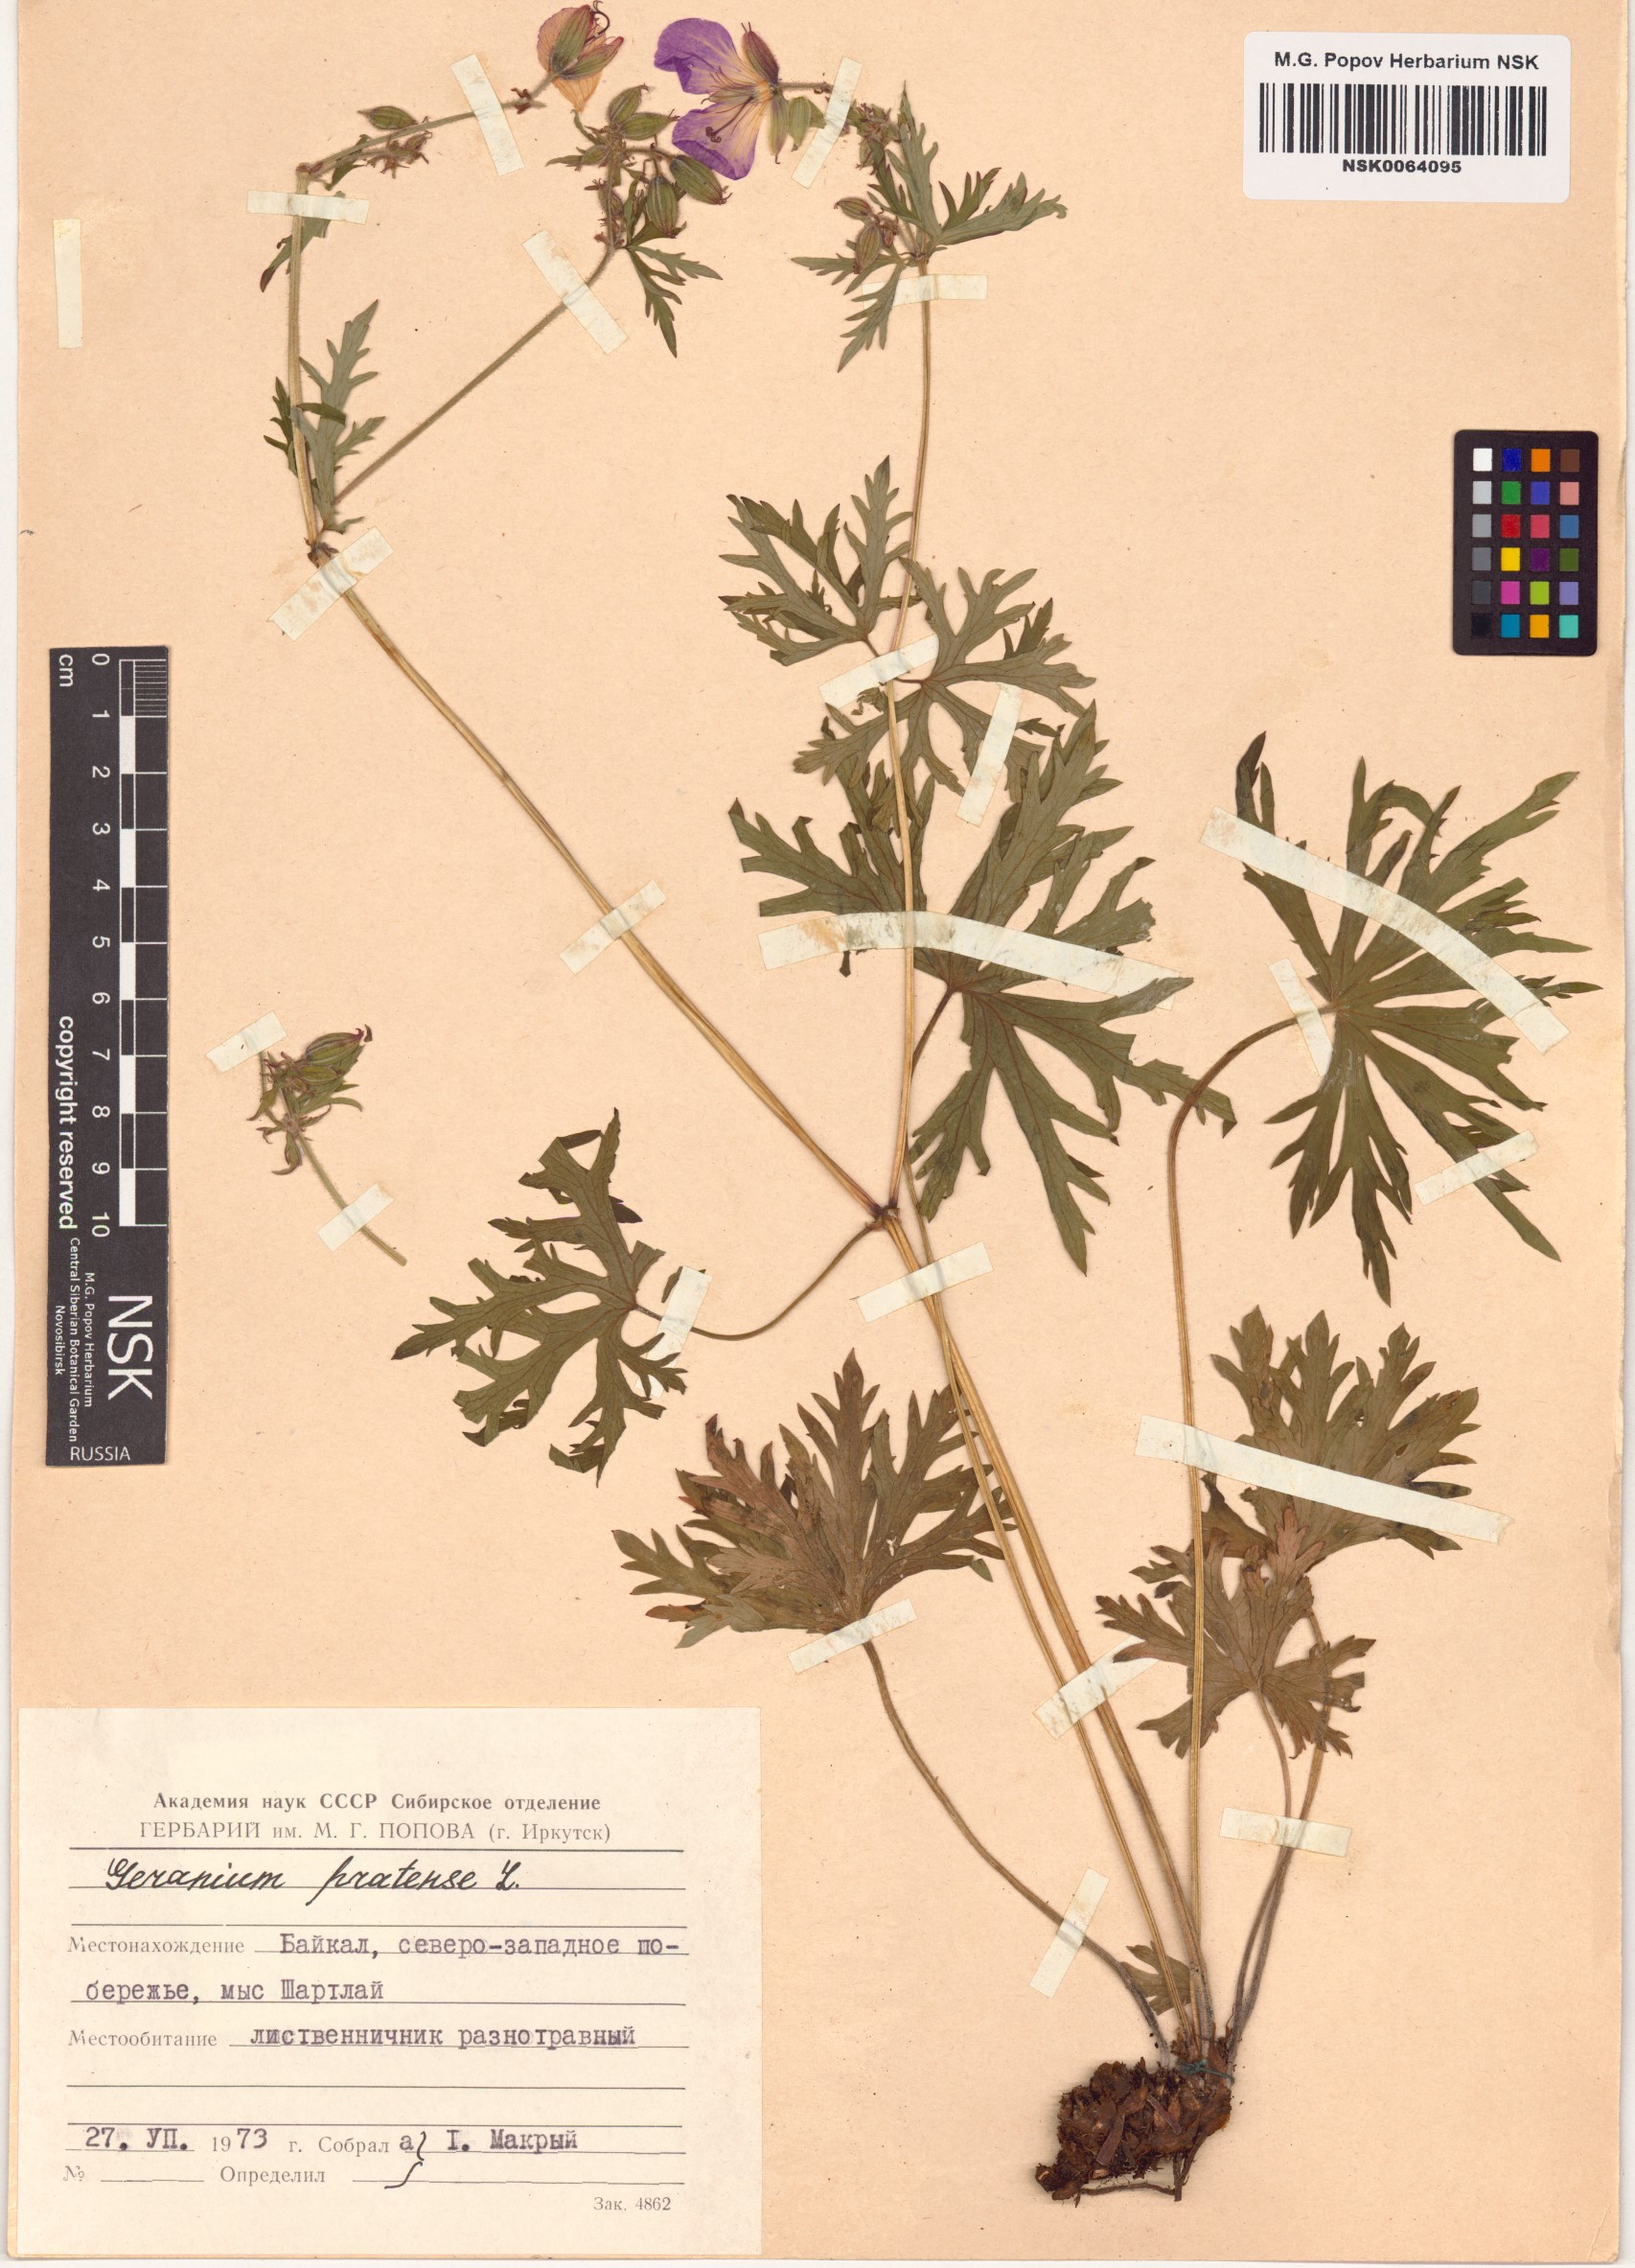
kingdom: Plantae
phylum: Tracheophyta
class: Magnoliopsida
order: Geraniales
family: Geraniaceae
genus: Geranium
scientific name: Geranium pratense
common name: Meadow crane's-bill
